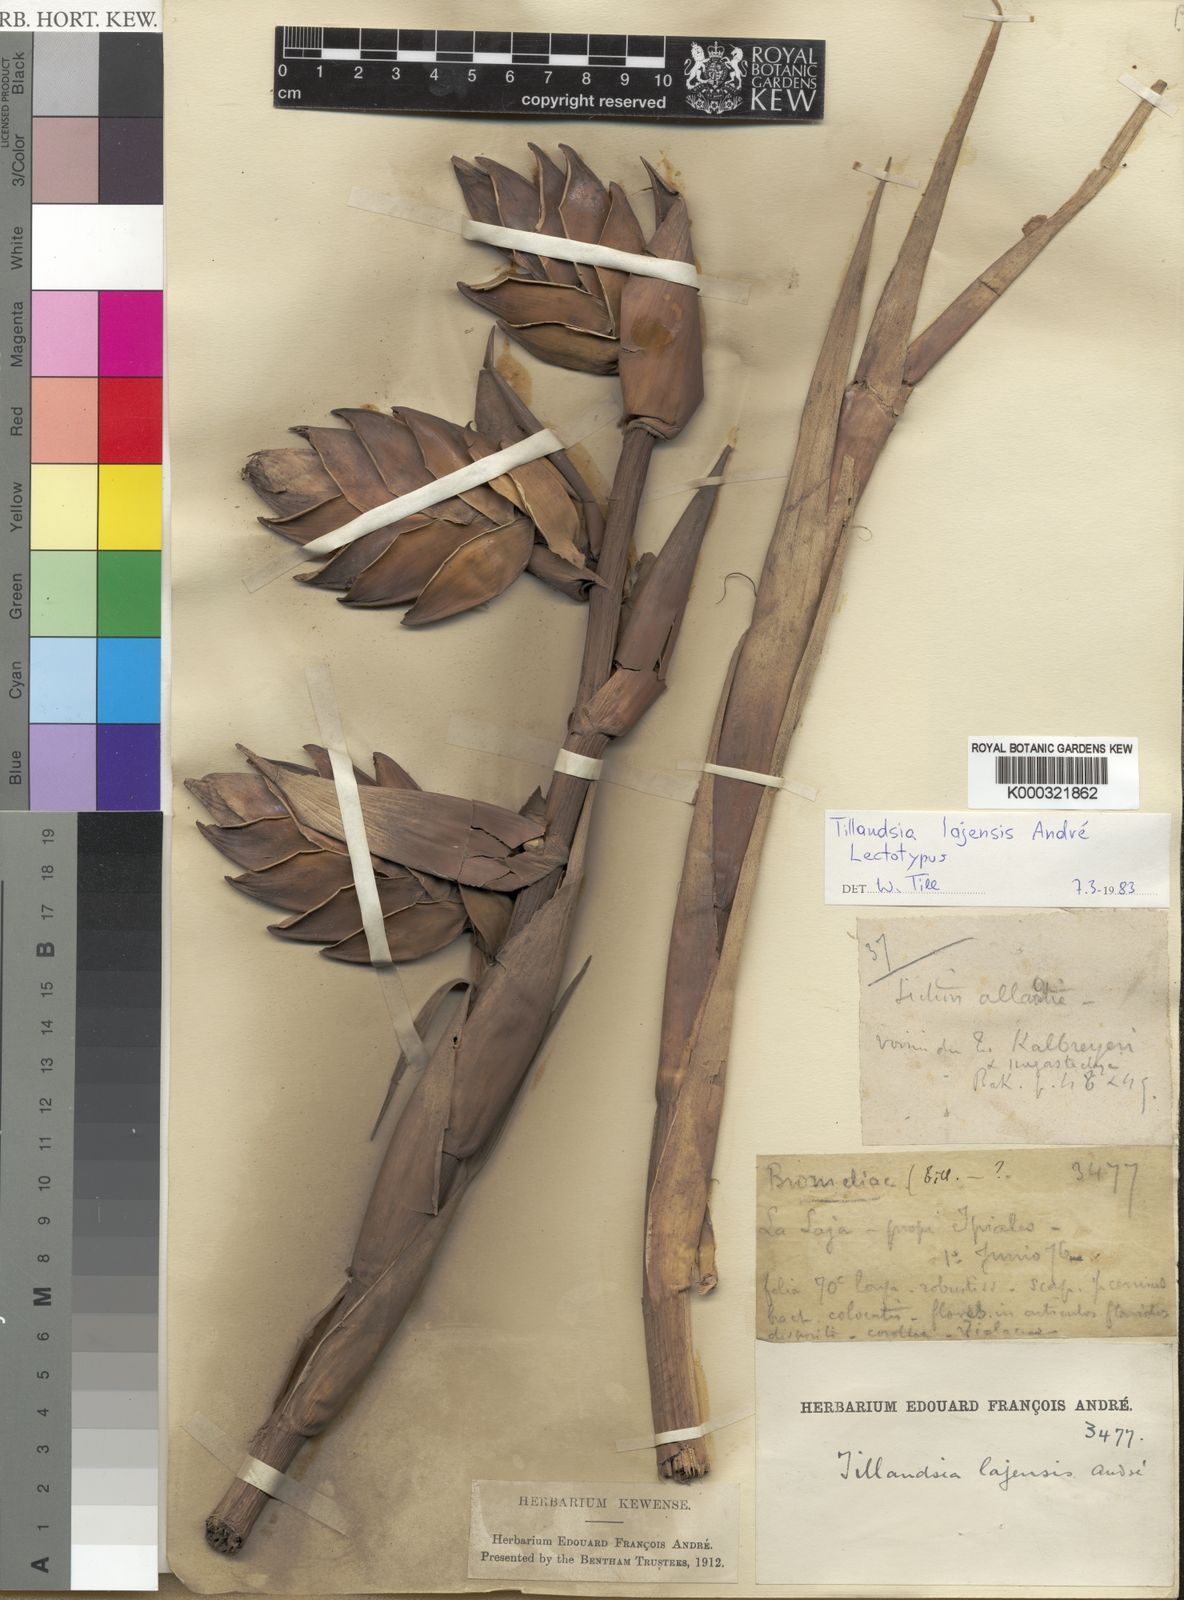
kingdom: Plantae
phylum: Tracheophyta
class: Liliopsida
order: Poales
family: Bromeliaceae
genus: Tillandsia
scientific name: Tillandsia
